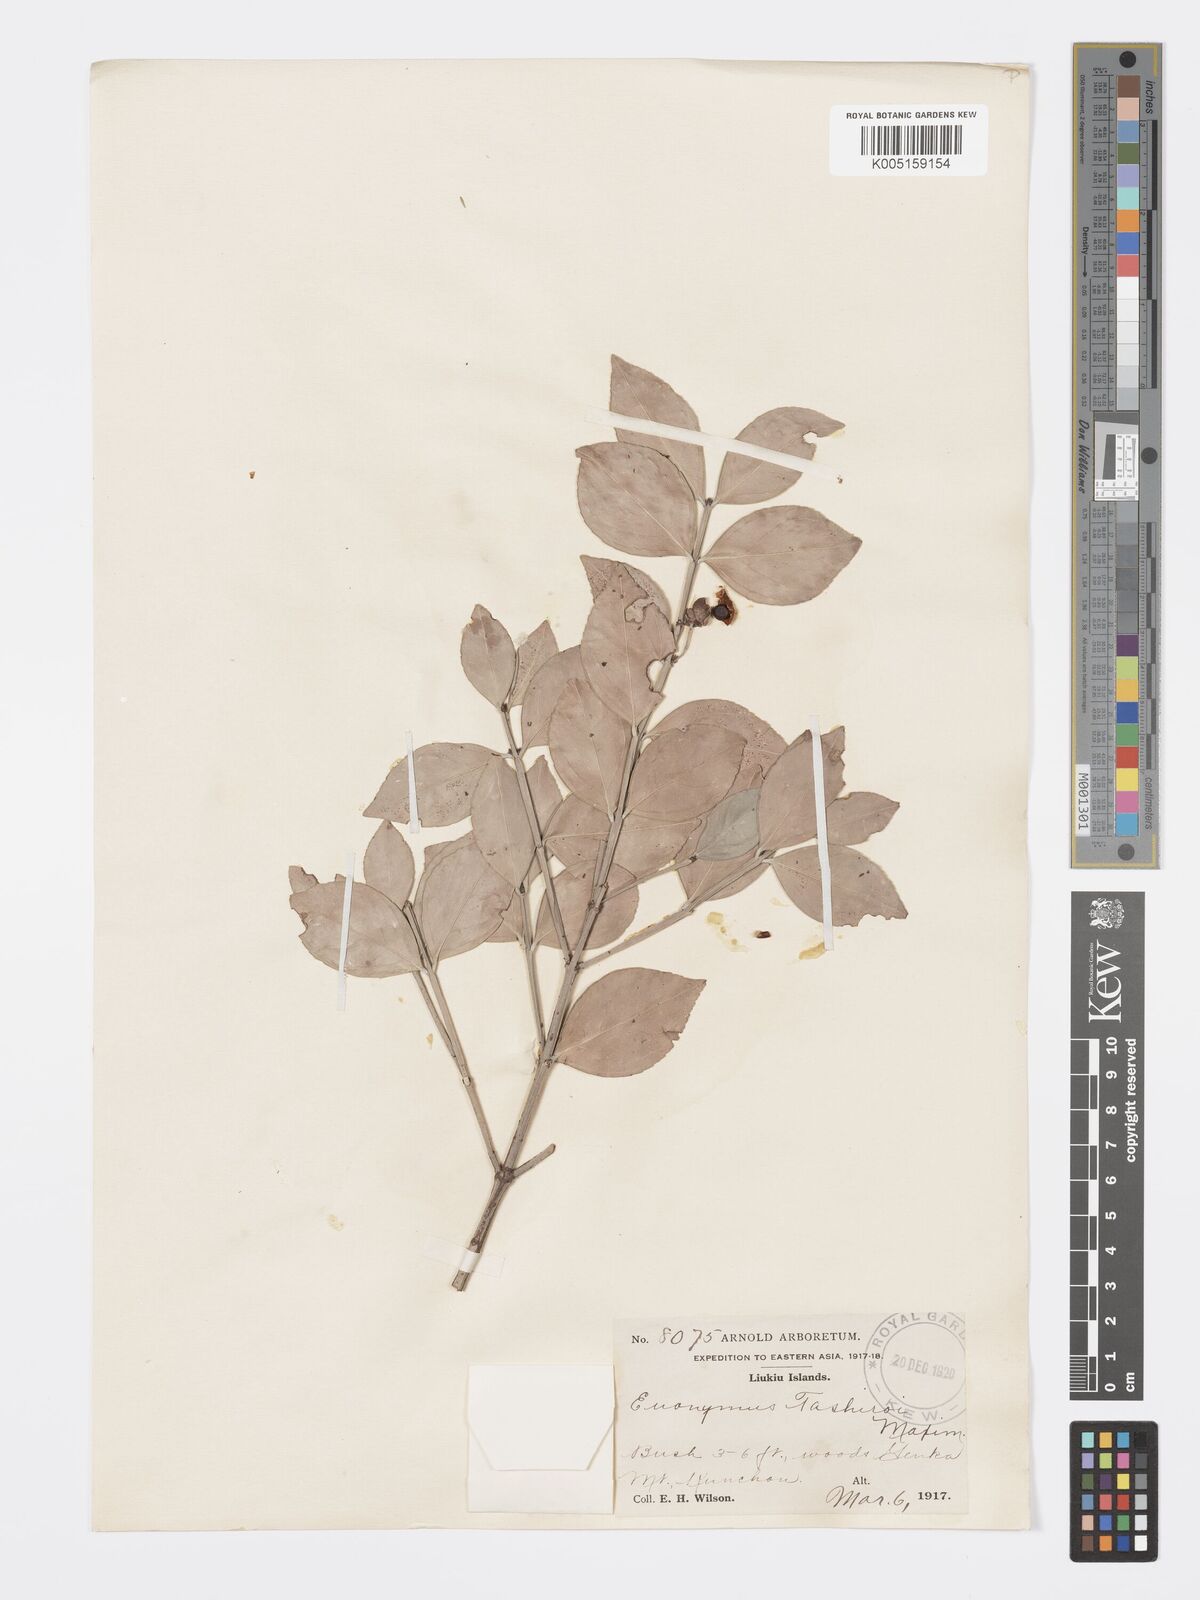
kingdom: Plantae
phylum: Tracheophyta
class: Magnoliopsida
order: Celastrales
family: Celastraceae
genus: Euonymus
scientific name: Euonymus tashiroi
